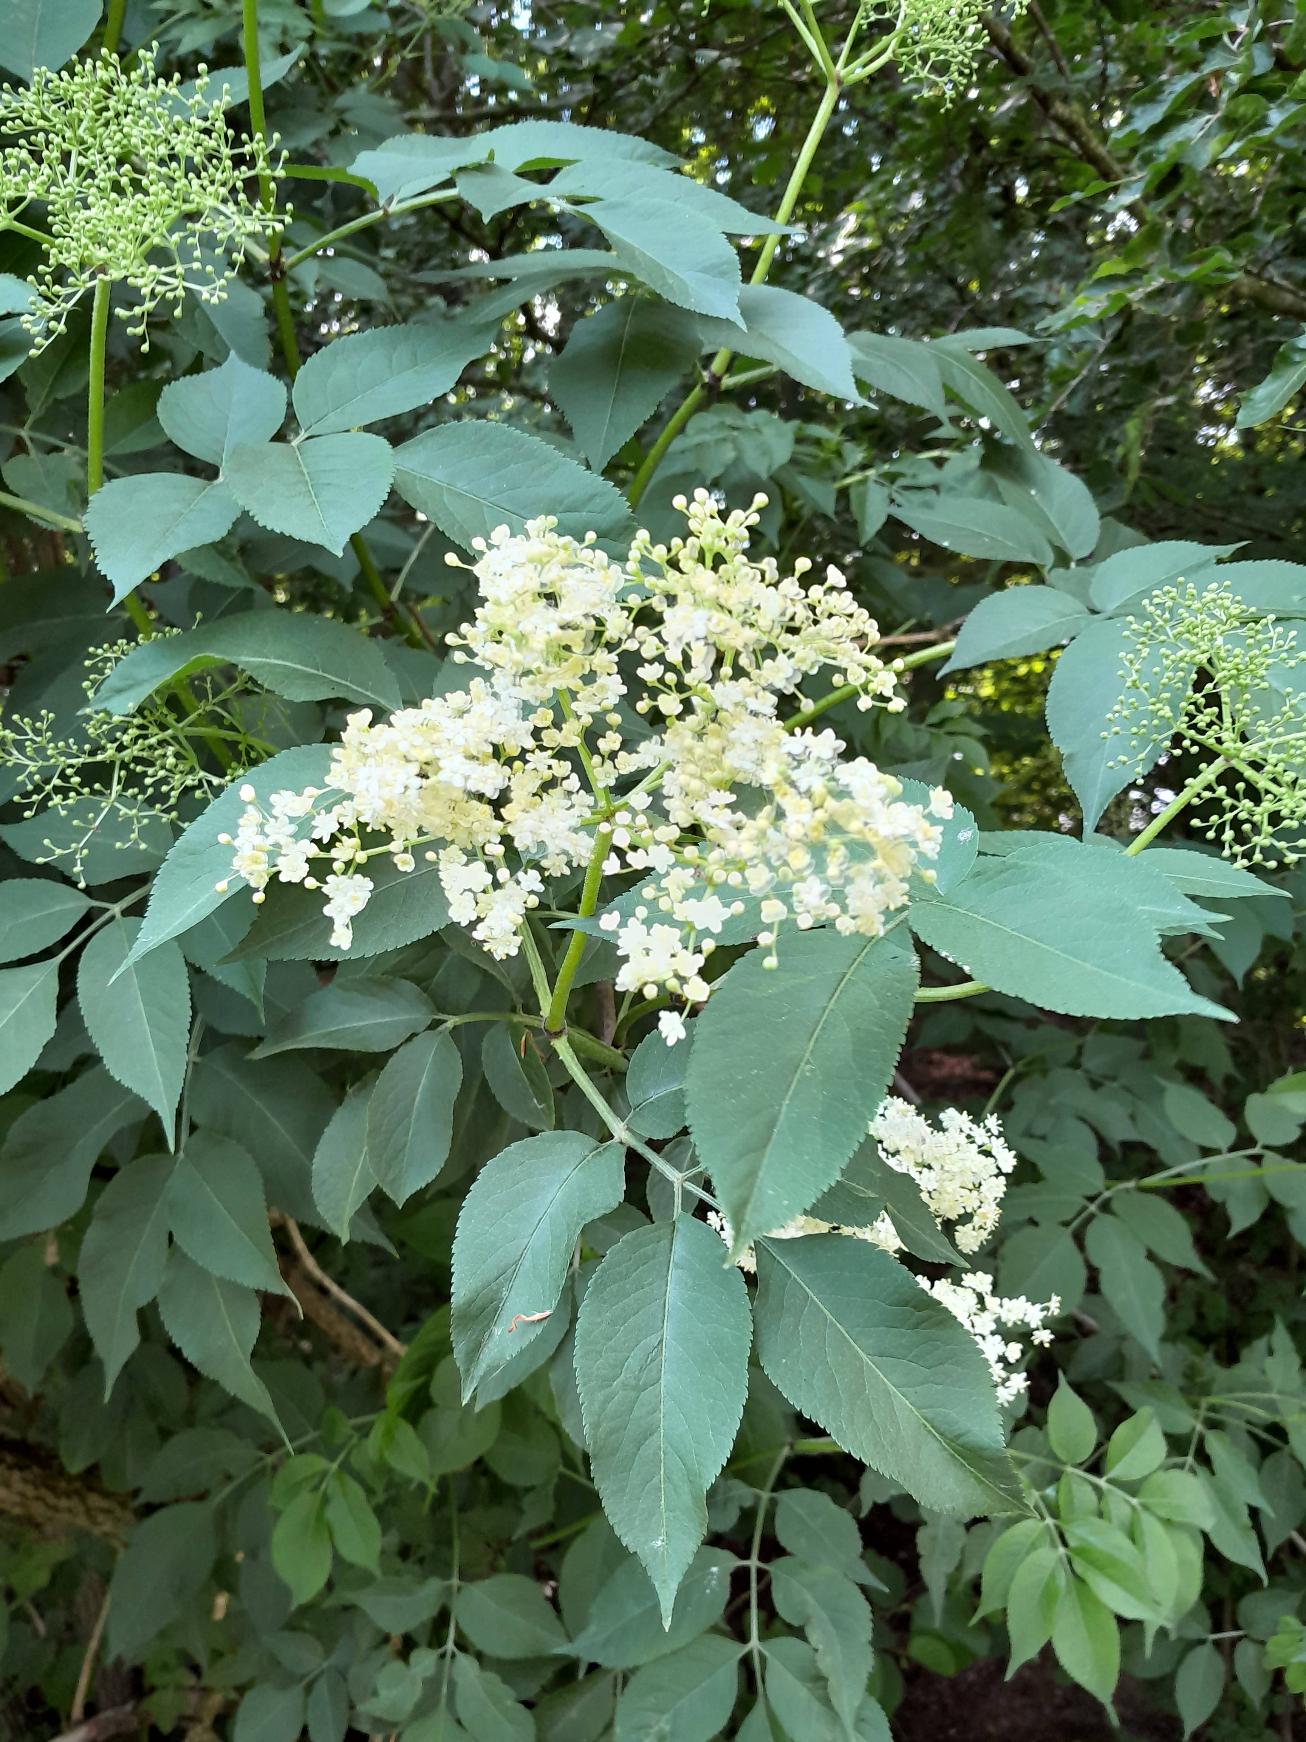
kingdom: Plantae
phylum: Tracheophyta
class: Magnoliopsida
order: Dipsacales
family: Viburnaceae
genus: Sambucus
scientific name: Sambucus nigra
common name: Almindelig hyld
